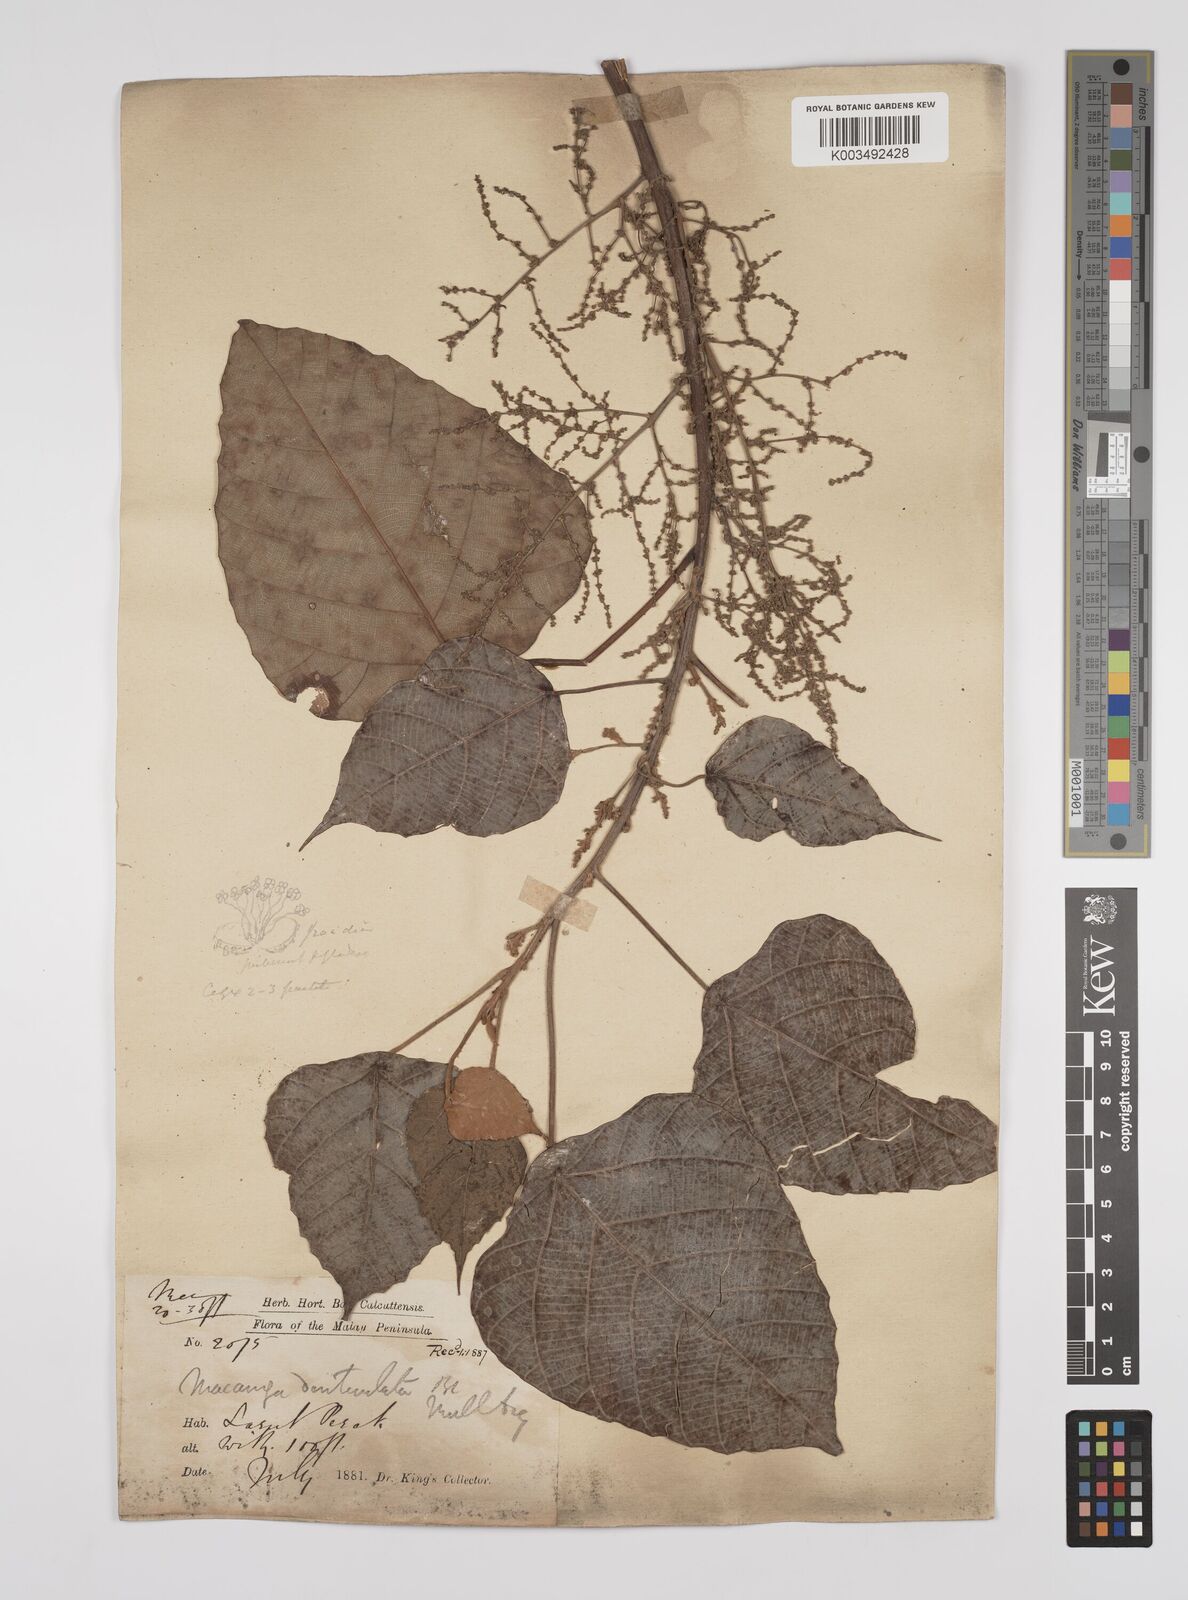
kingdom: Plantae
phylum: Tracheophyta
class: Magnoliopsida
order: Malpighiales
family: Euphorbiaceae
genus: Macaranga
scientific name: Macaranga denticulata
